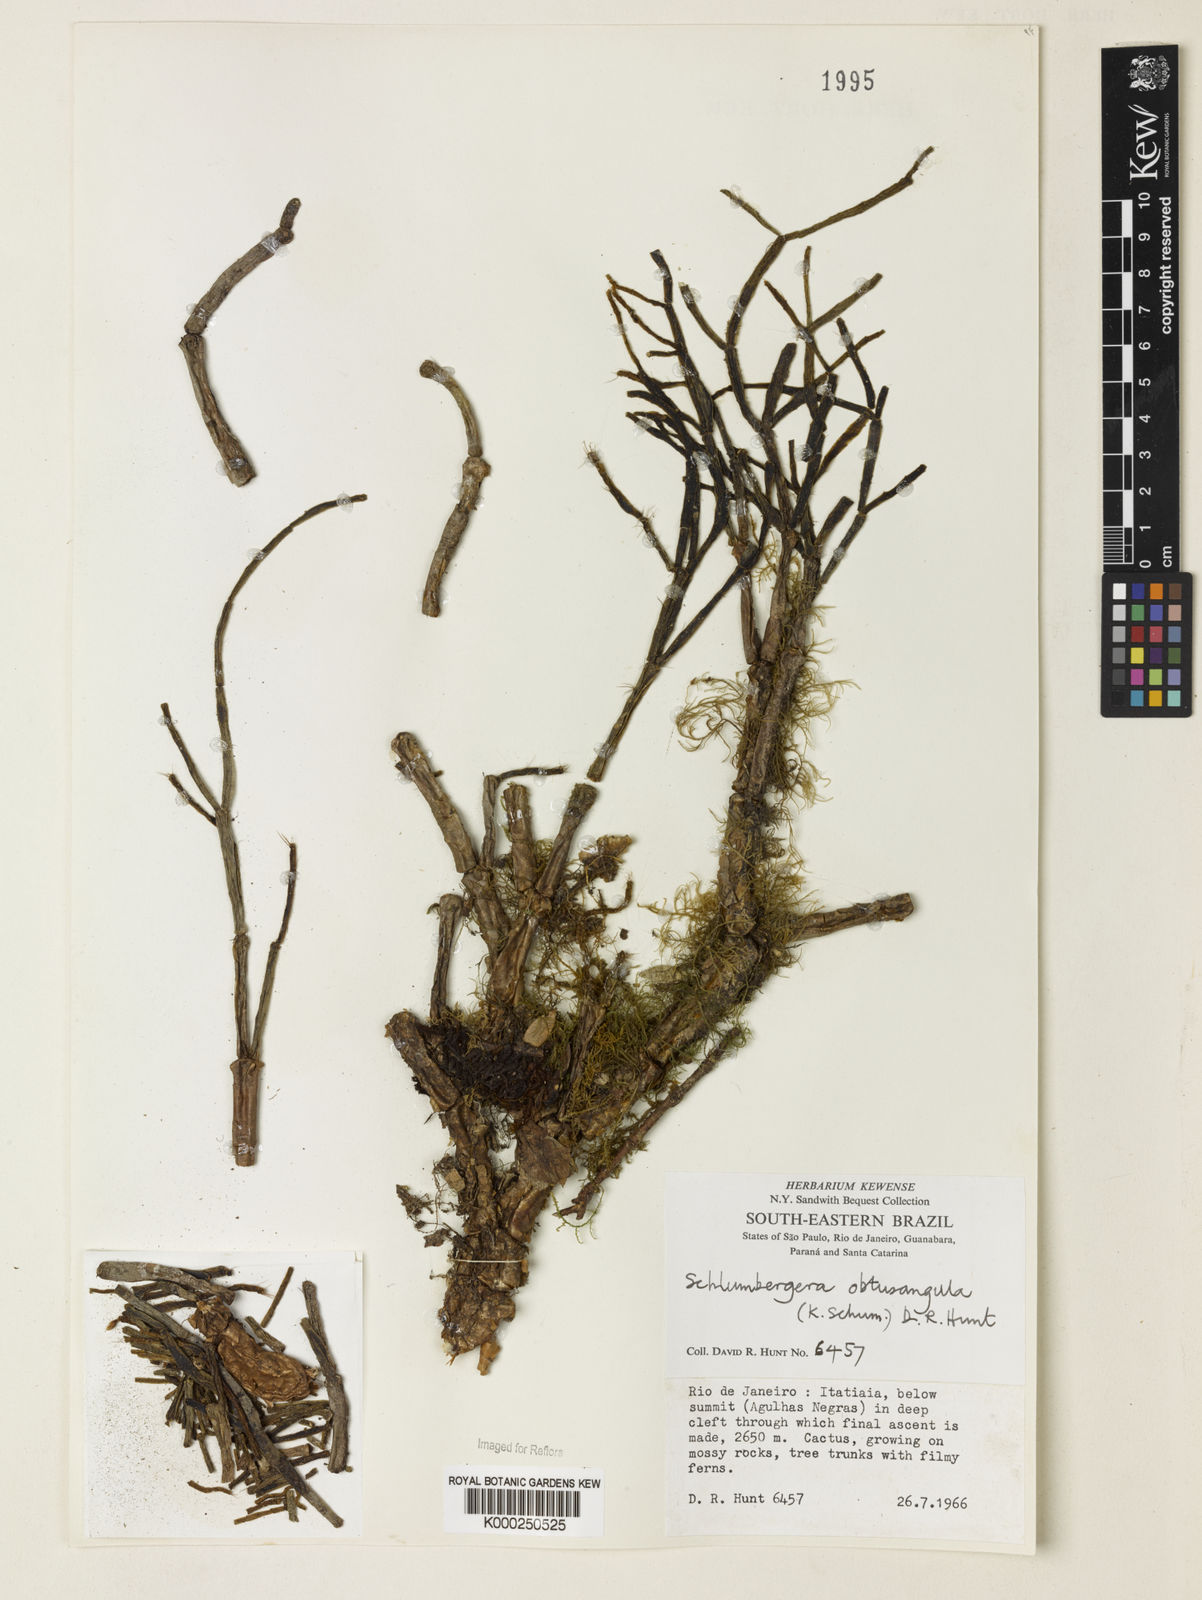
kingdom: Plantae
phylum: Tracheophyta
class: Magnoliopsida
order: Caryophyllales
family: Cactaceae
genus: Schlumbergera
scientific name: Schlumbergera
